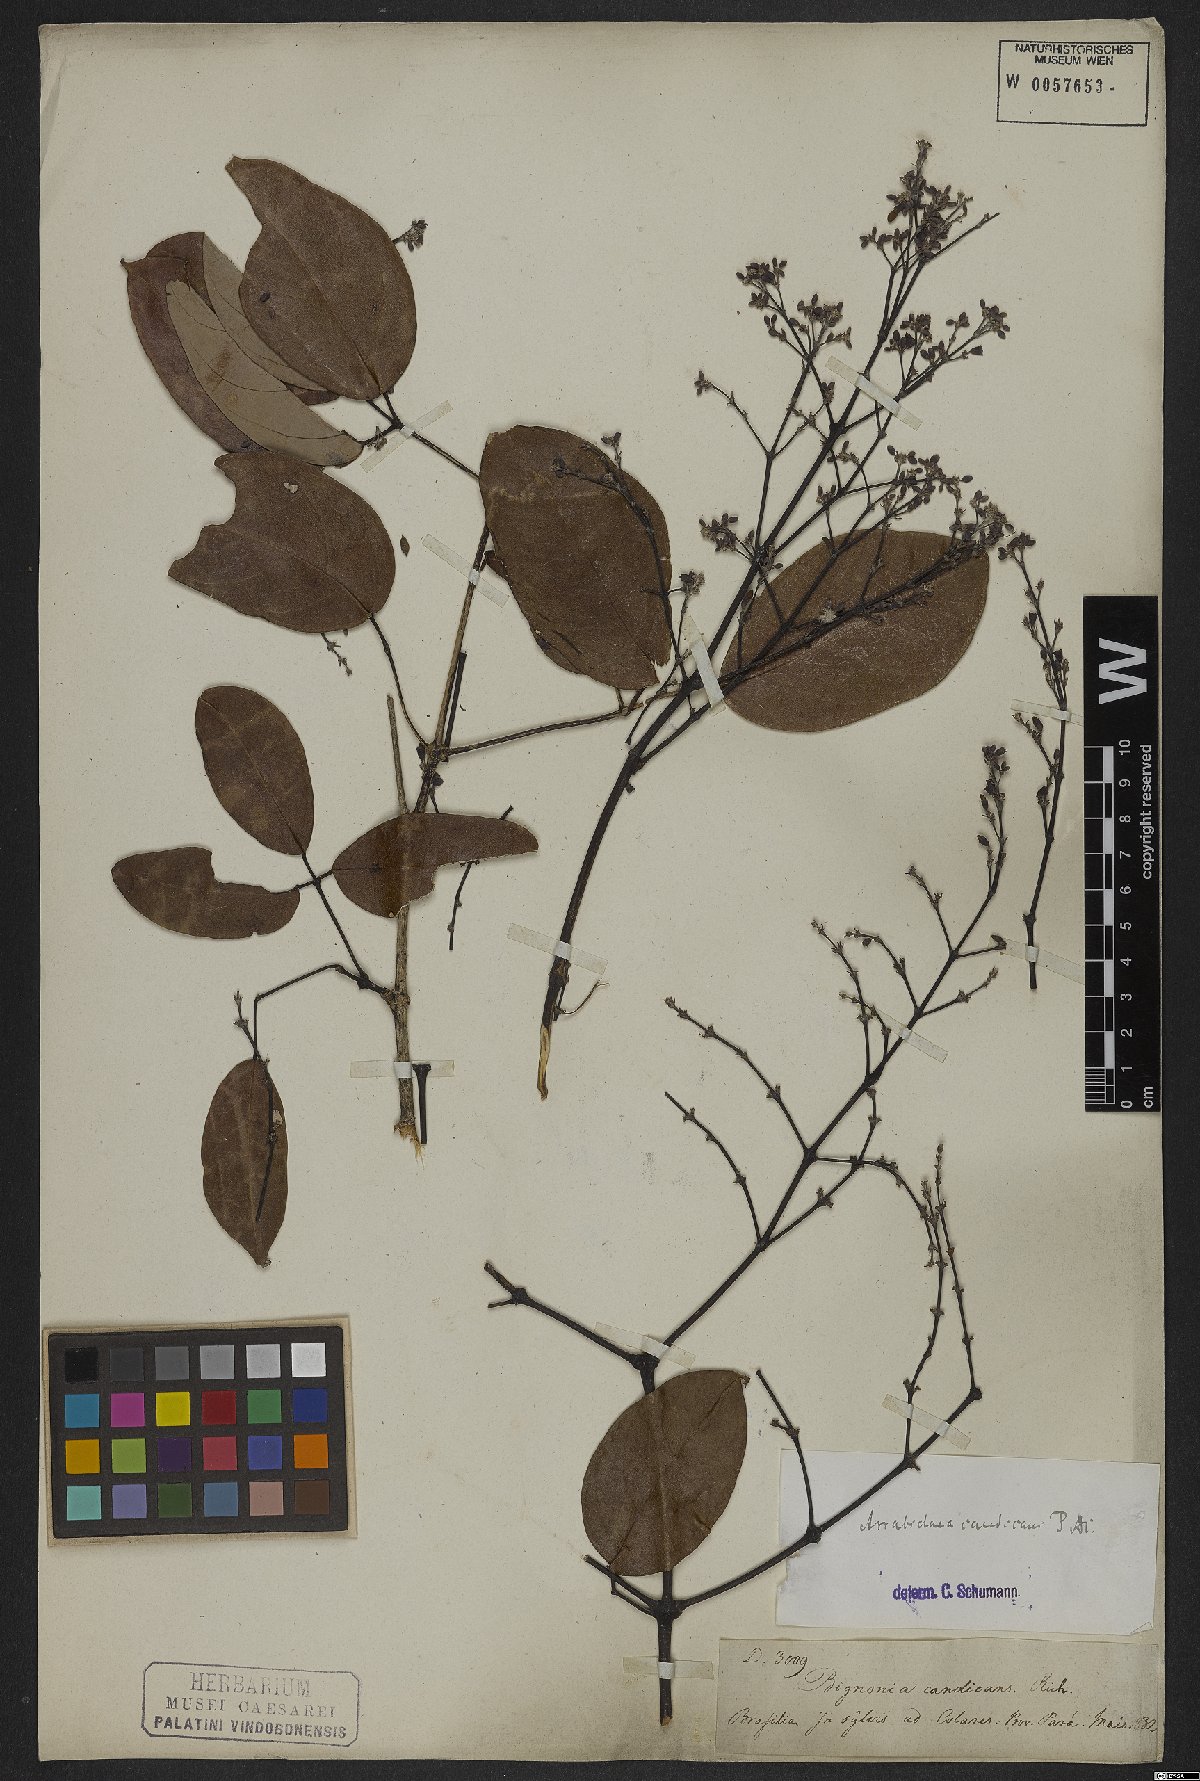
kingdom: Plantae
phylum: Tracheophyta
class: Magnoliopsida
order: Lamiales
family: Bignoniaceae
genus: Fridericia
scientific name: Fridericia candicans
